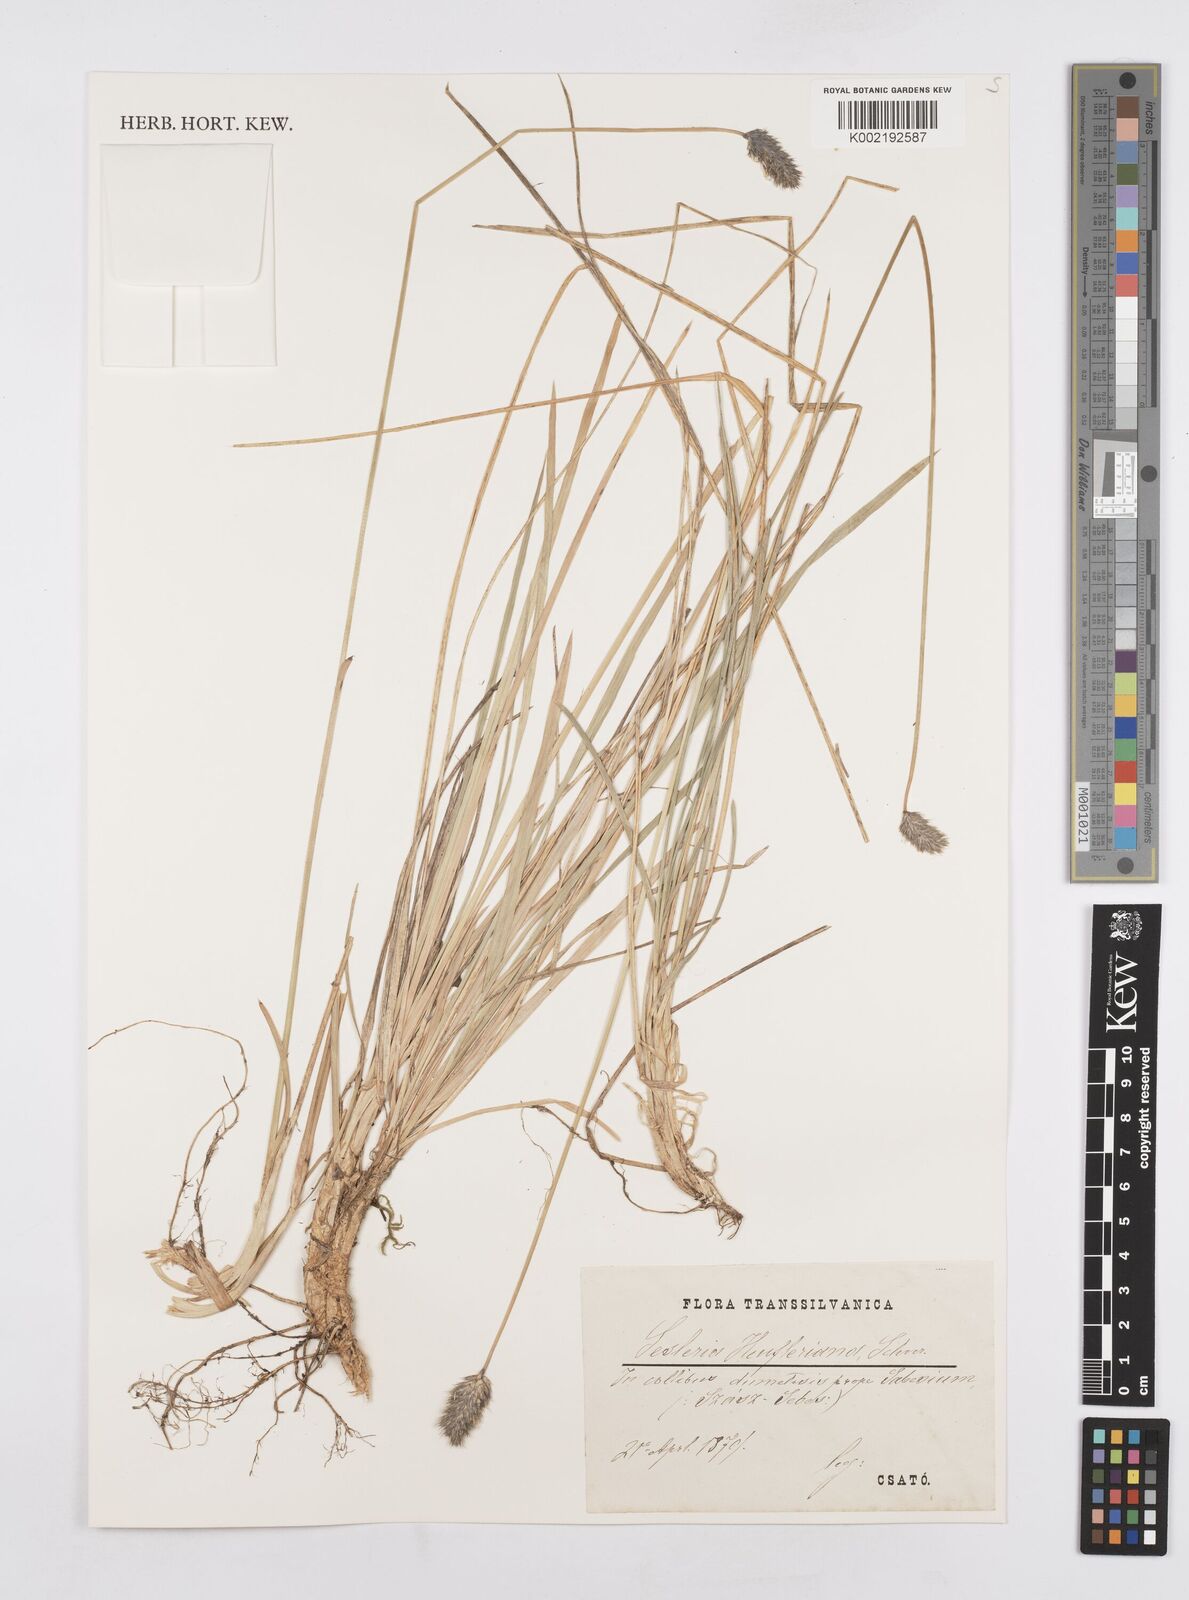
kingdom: Plantae
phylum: Tracheophyta
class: Liliopsida
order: Poales
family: Poaceae
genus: Sesleria
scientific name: Sesleria heufleriana
